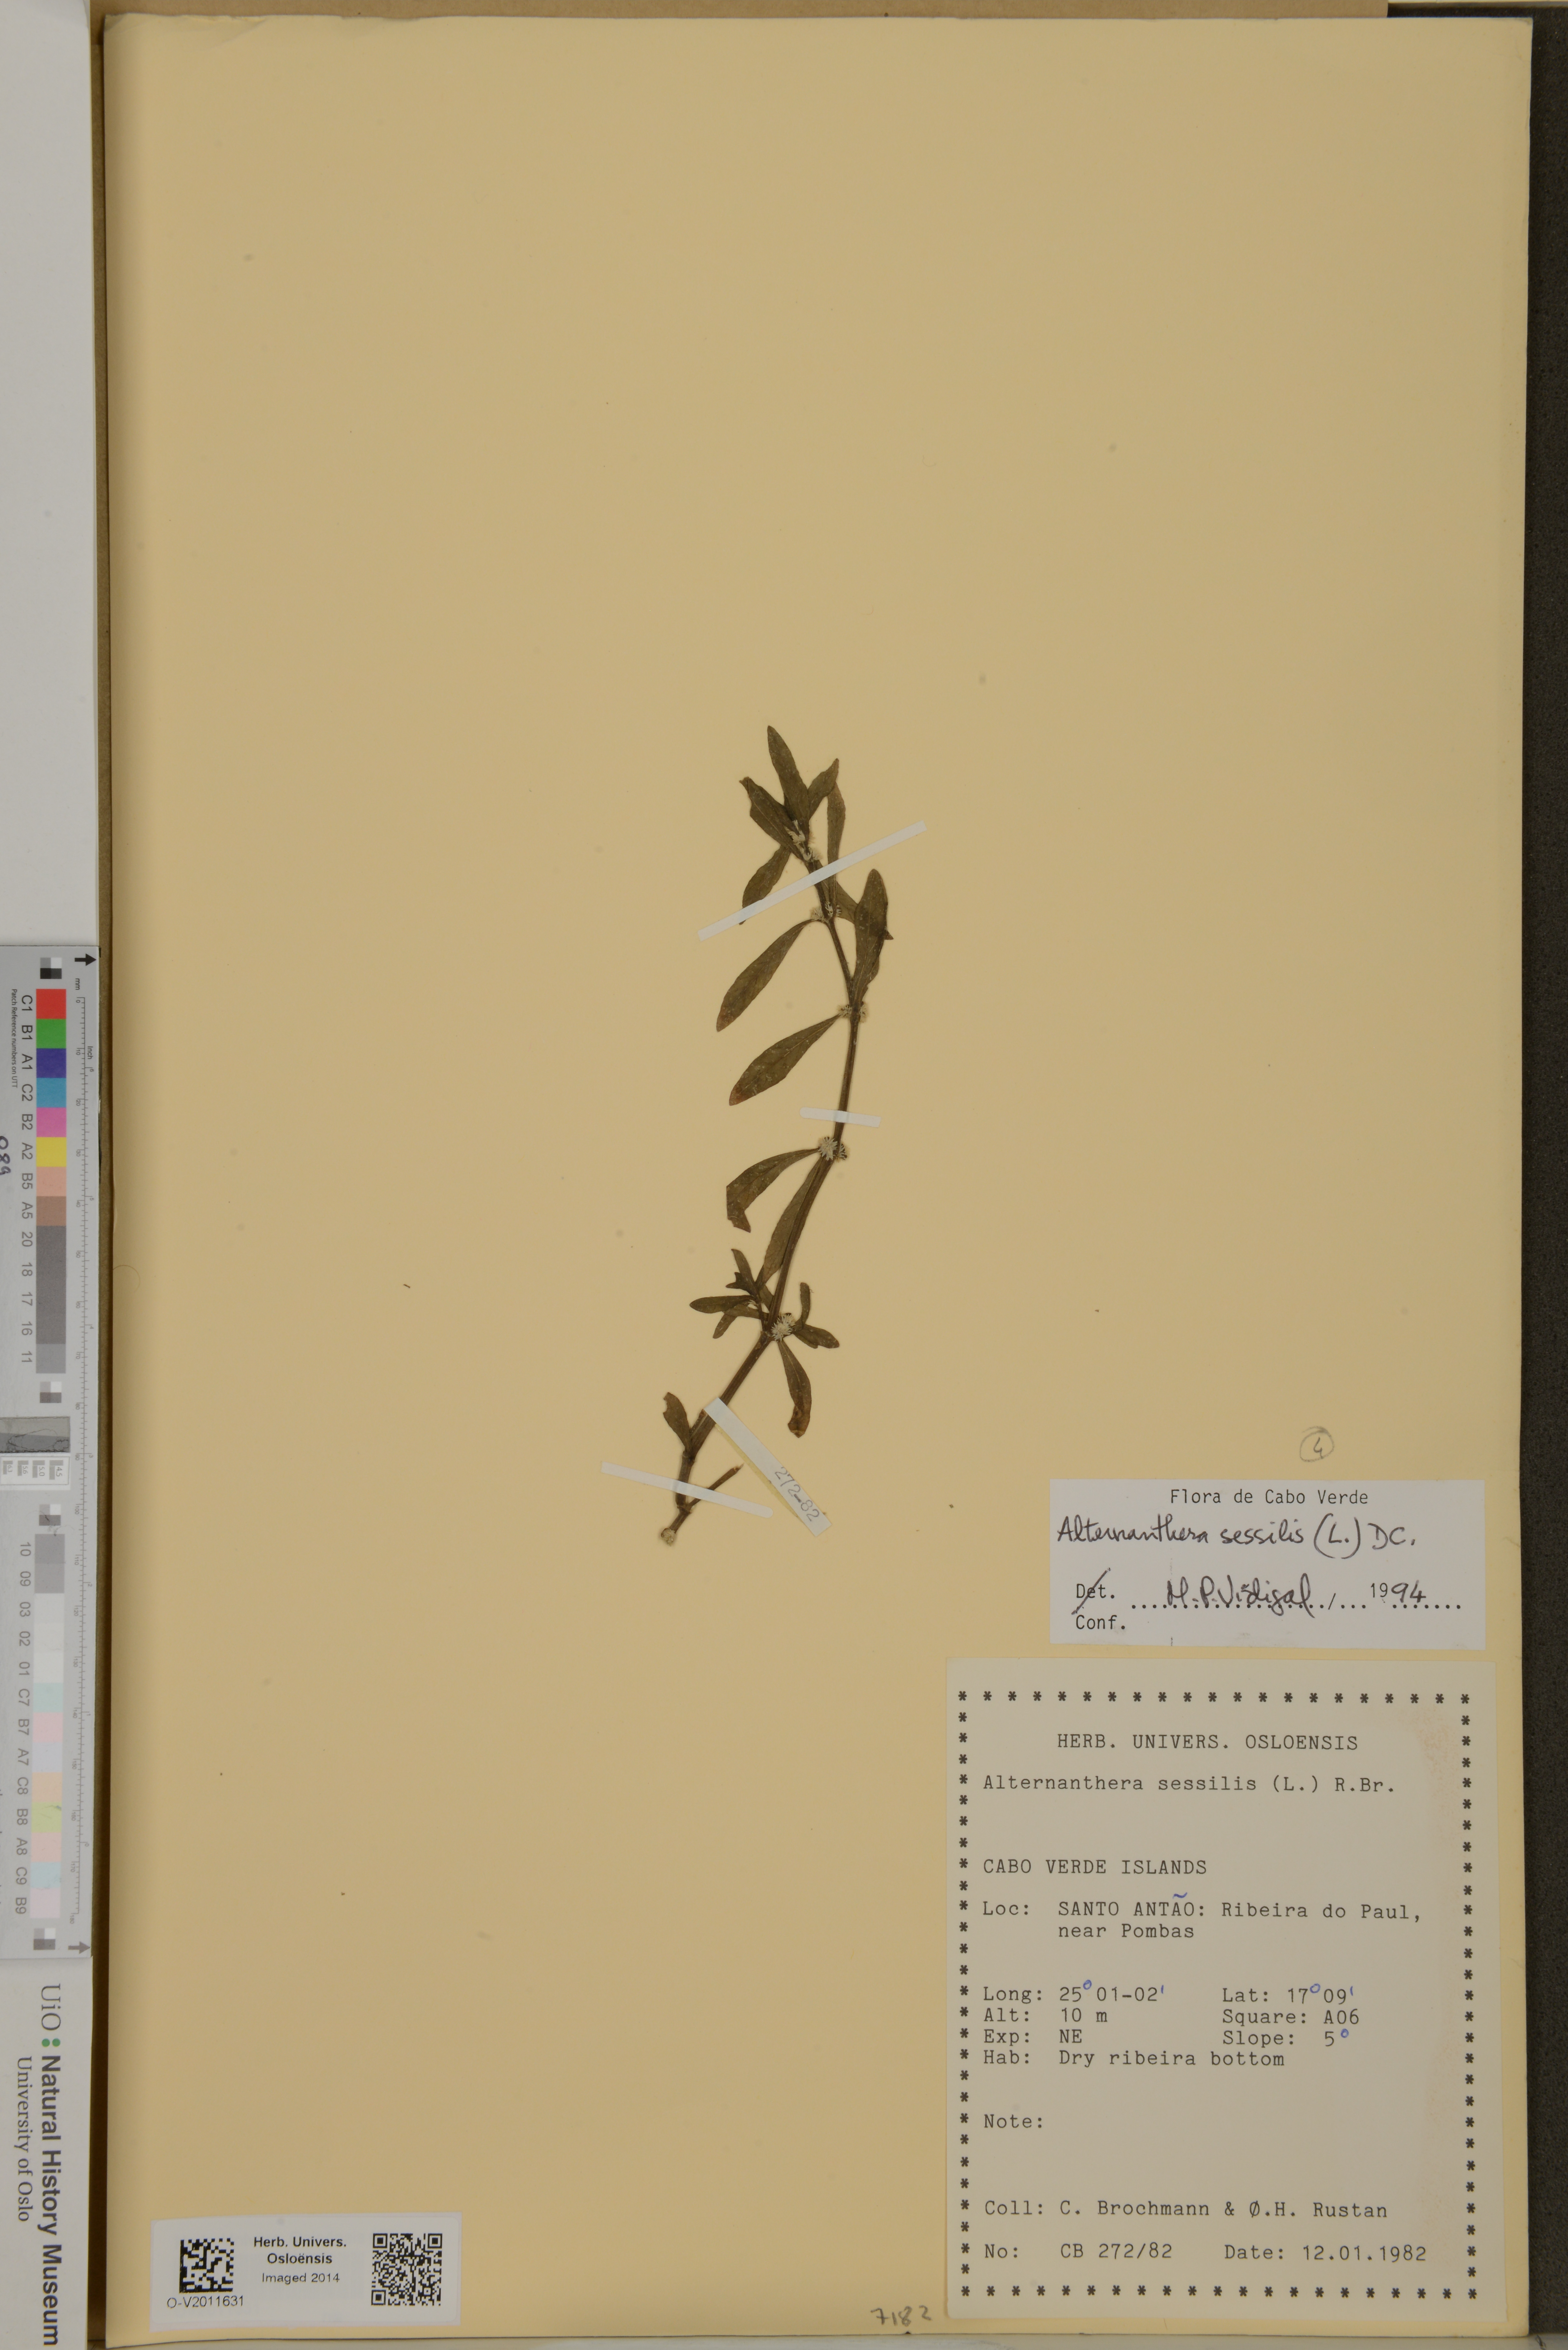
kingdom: Plantae
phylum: Tracheophyta
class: Magnoliopsida
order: Caryophyllales
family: Amaranthaceae
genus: Alternanthera
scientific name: Alternanthera sessilis
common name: Sessile joyweed
